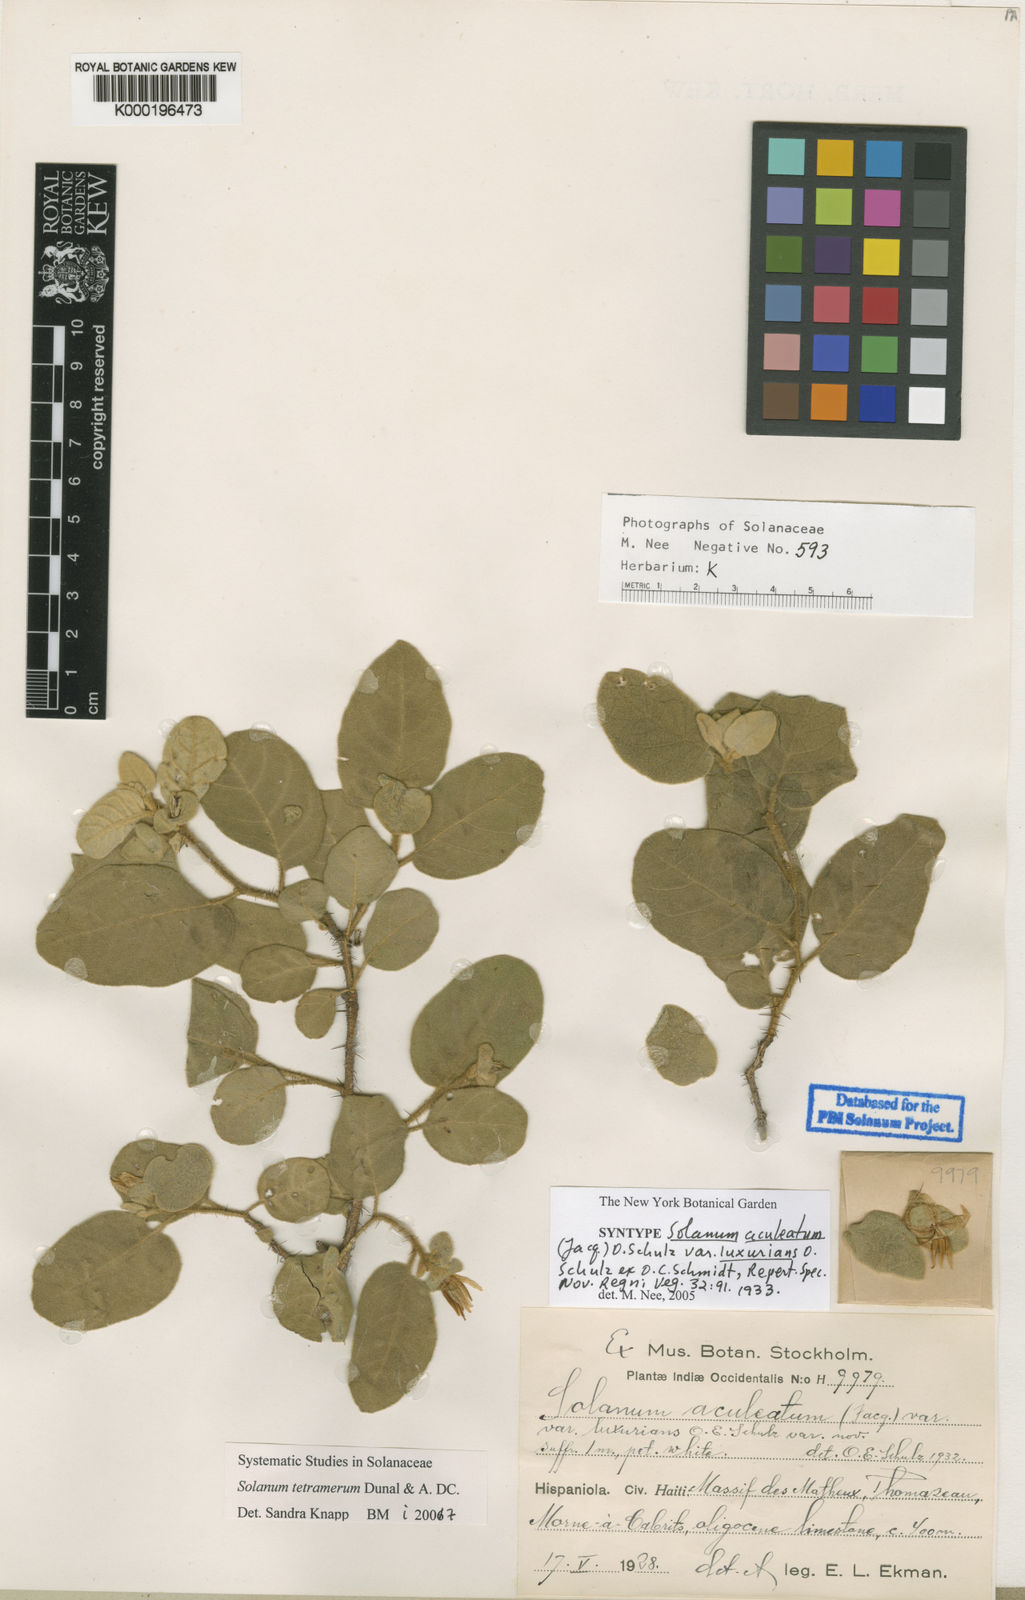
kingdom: Plantae
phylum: Tracheophyta
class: Magnoliopsida
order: Solanales
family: Solanaceae
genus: Solanum
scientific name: Solanum tetramerum
